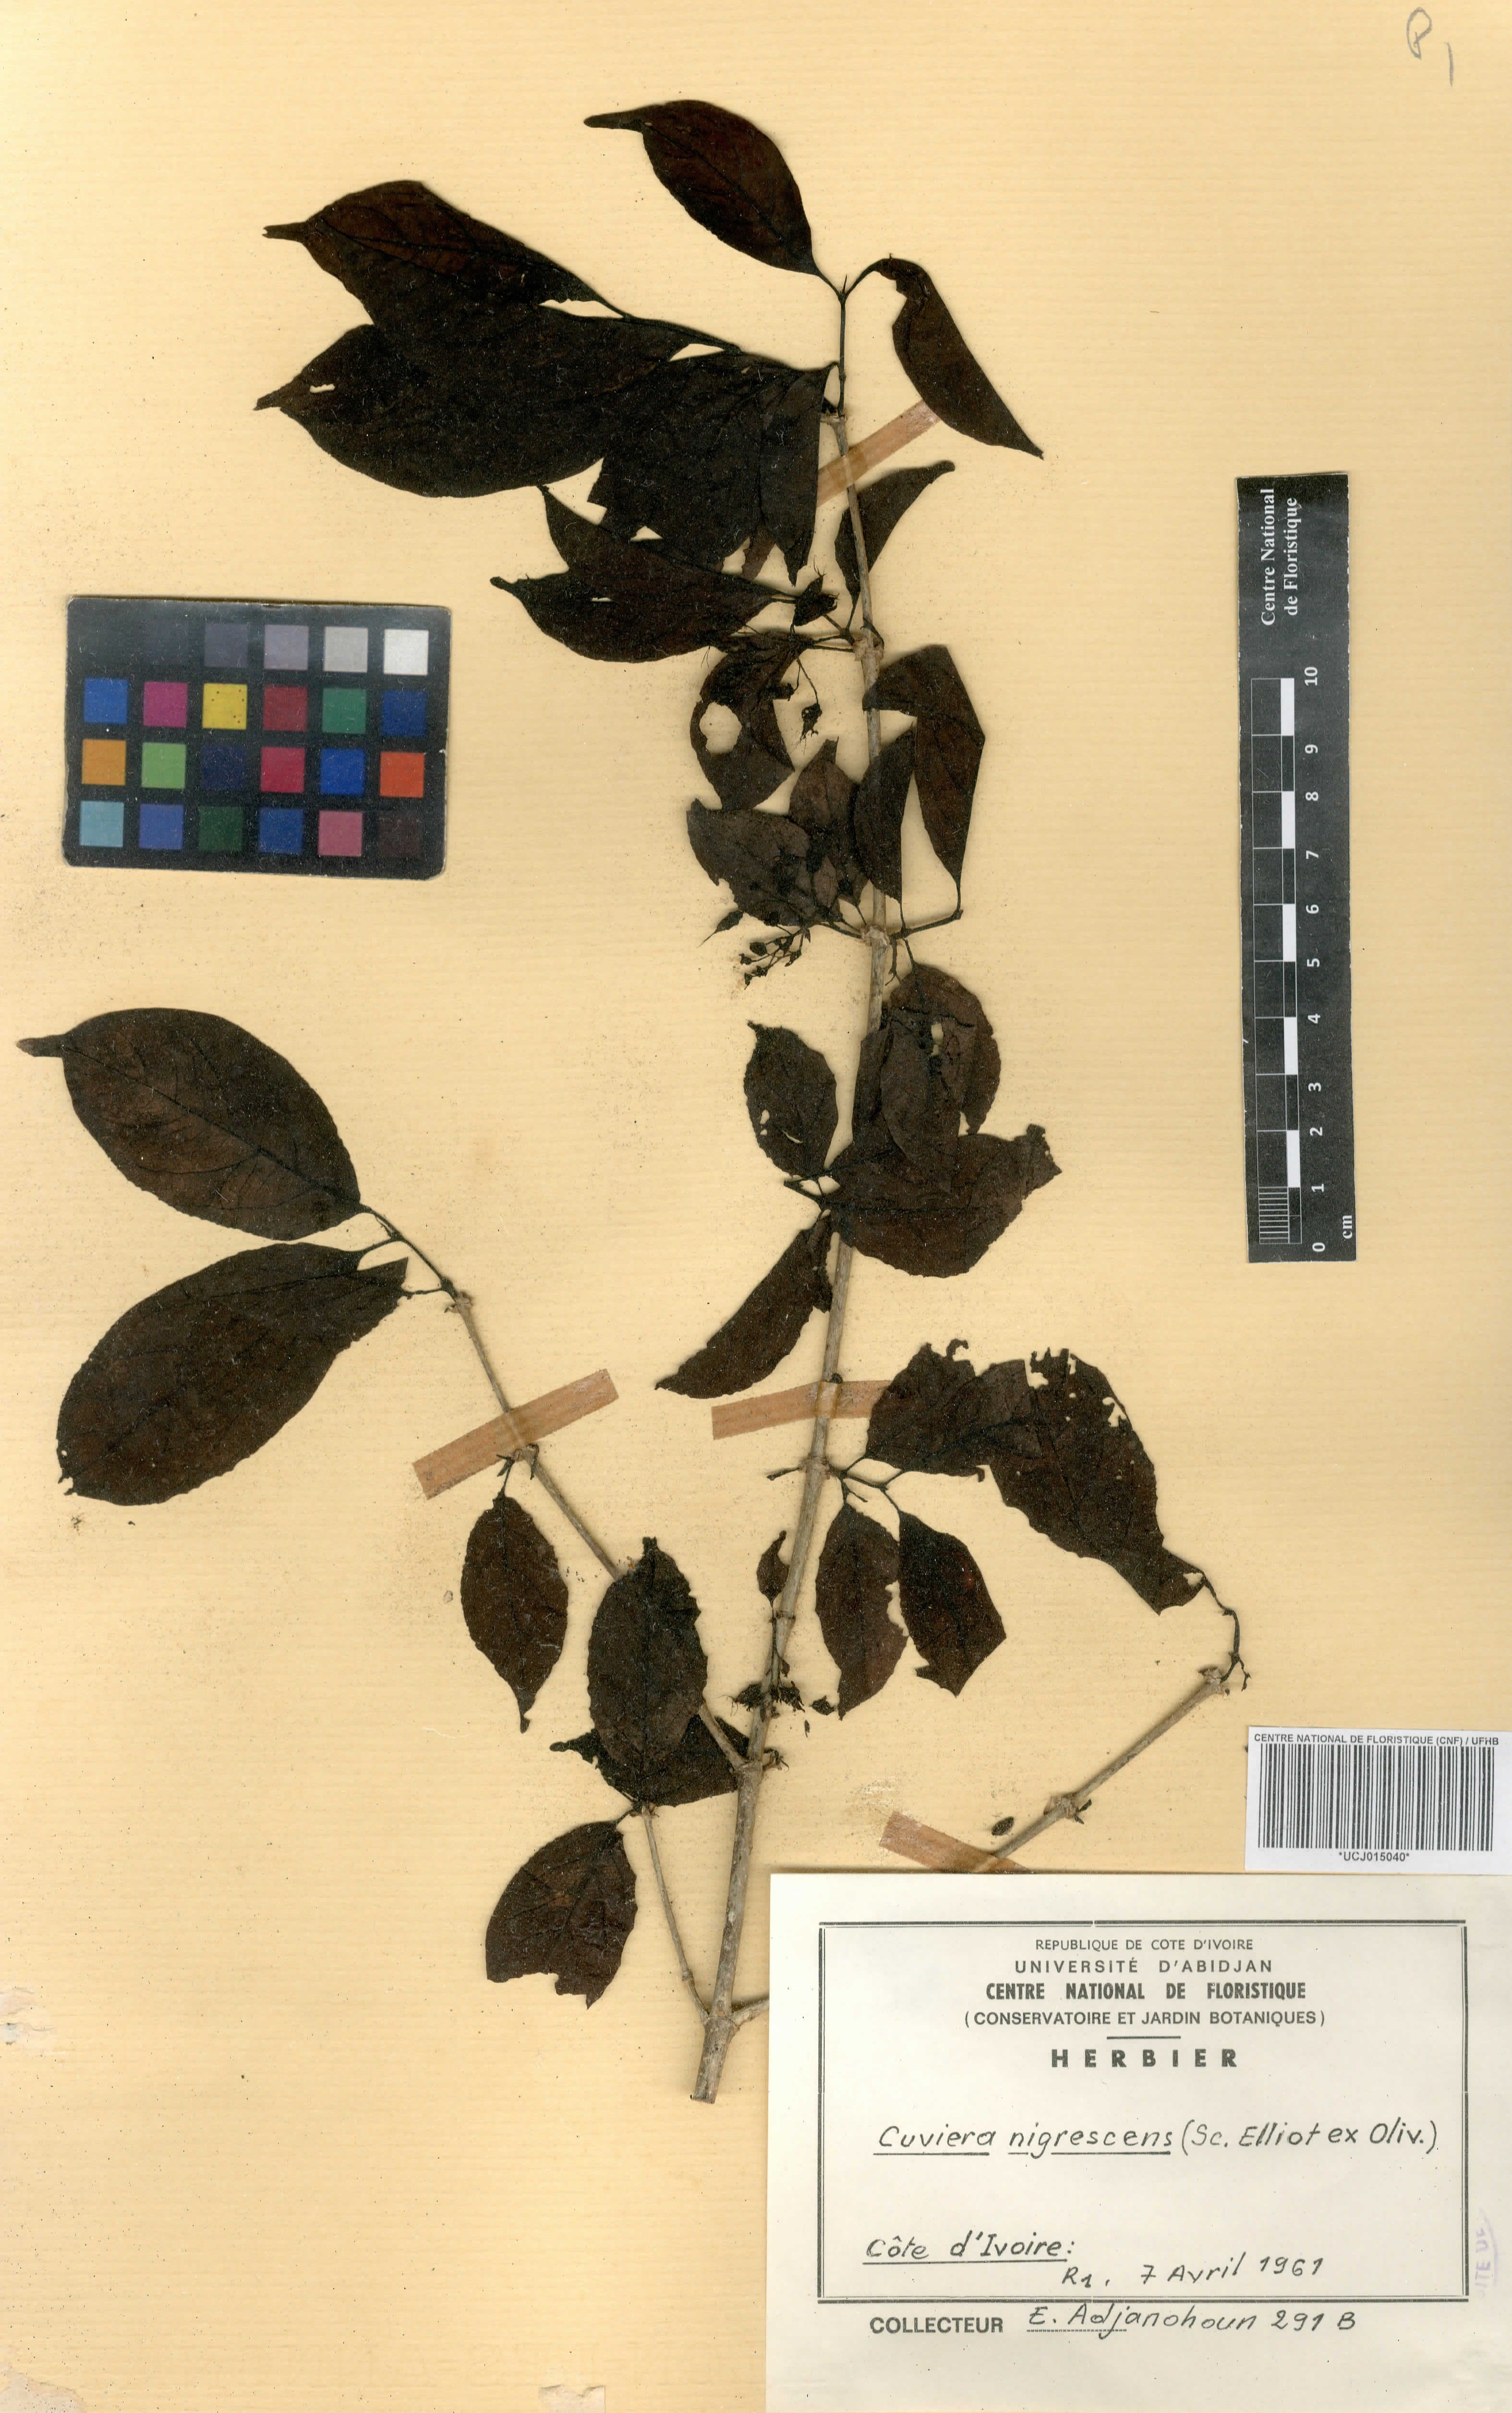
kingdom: Plantae
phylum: Tracheophyta
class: Magnoliopsida
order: Gentianales
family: Rubiaceae
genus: Cuviera
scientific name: Cuviera nigrescens
